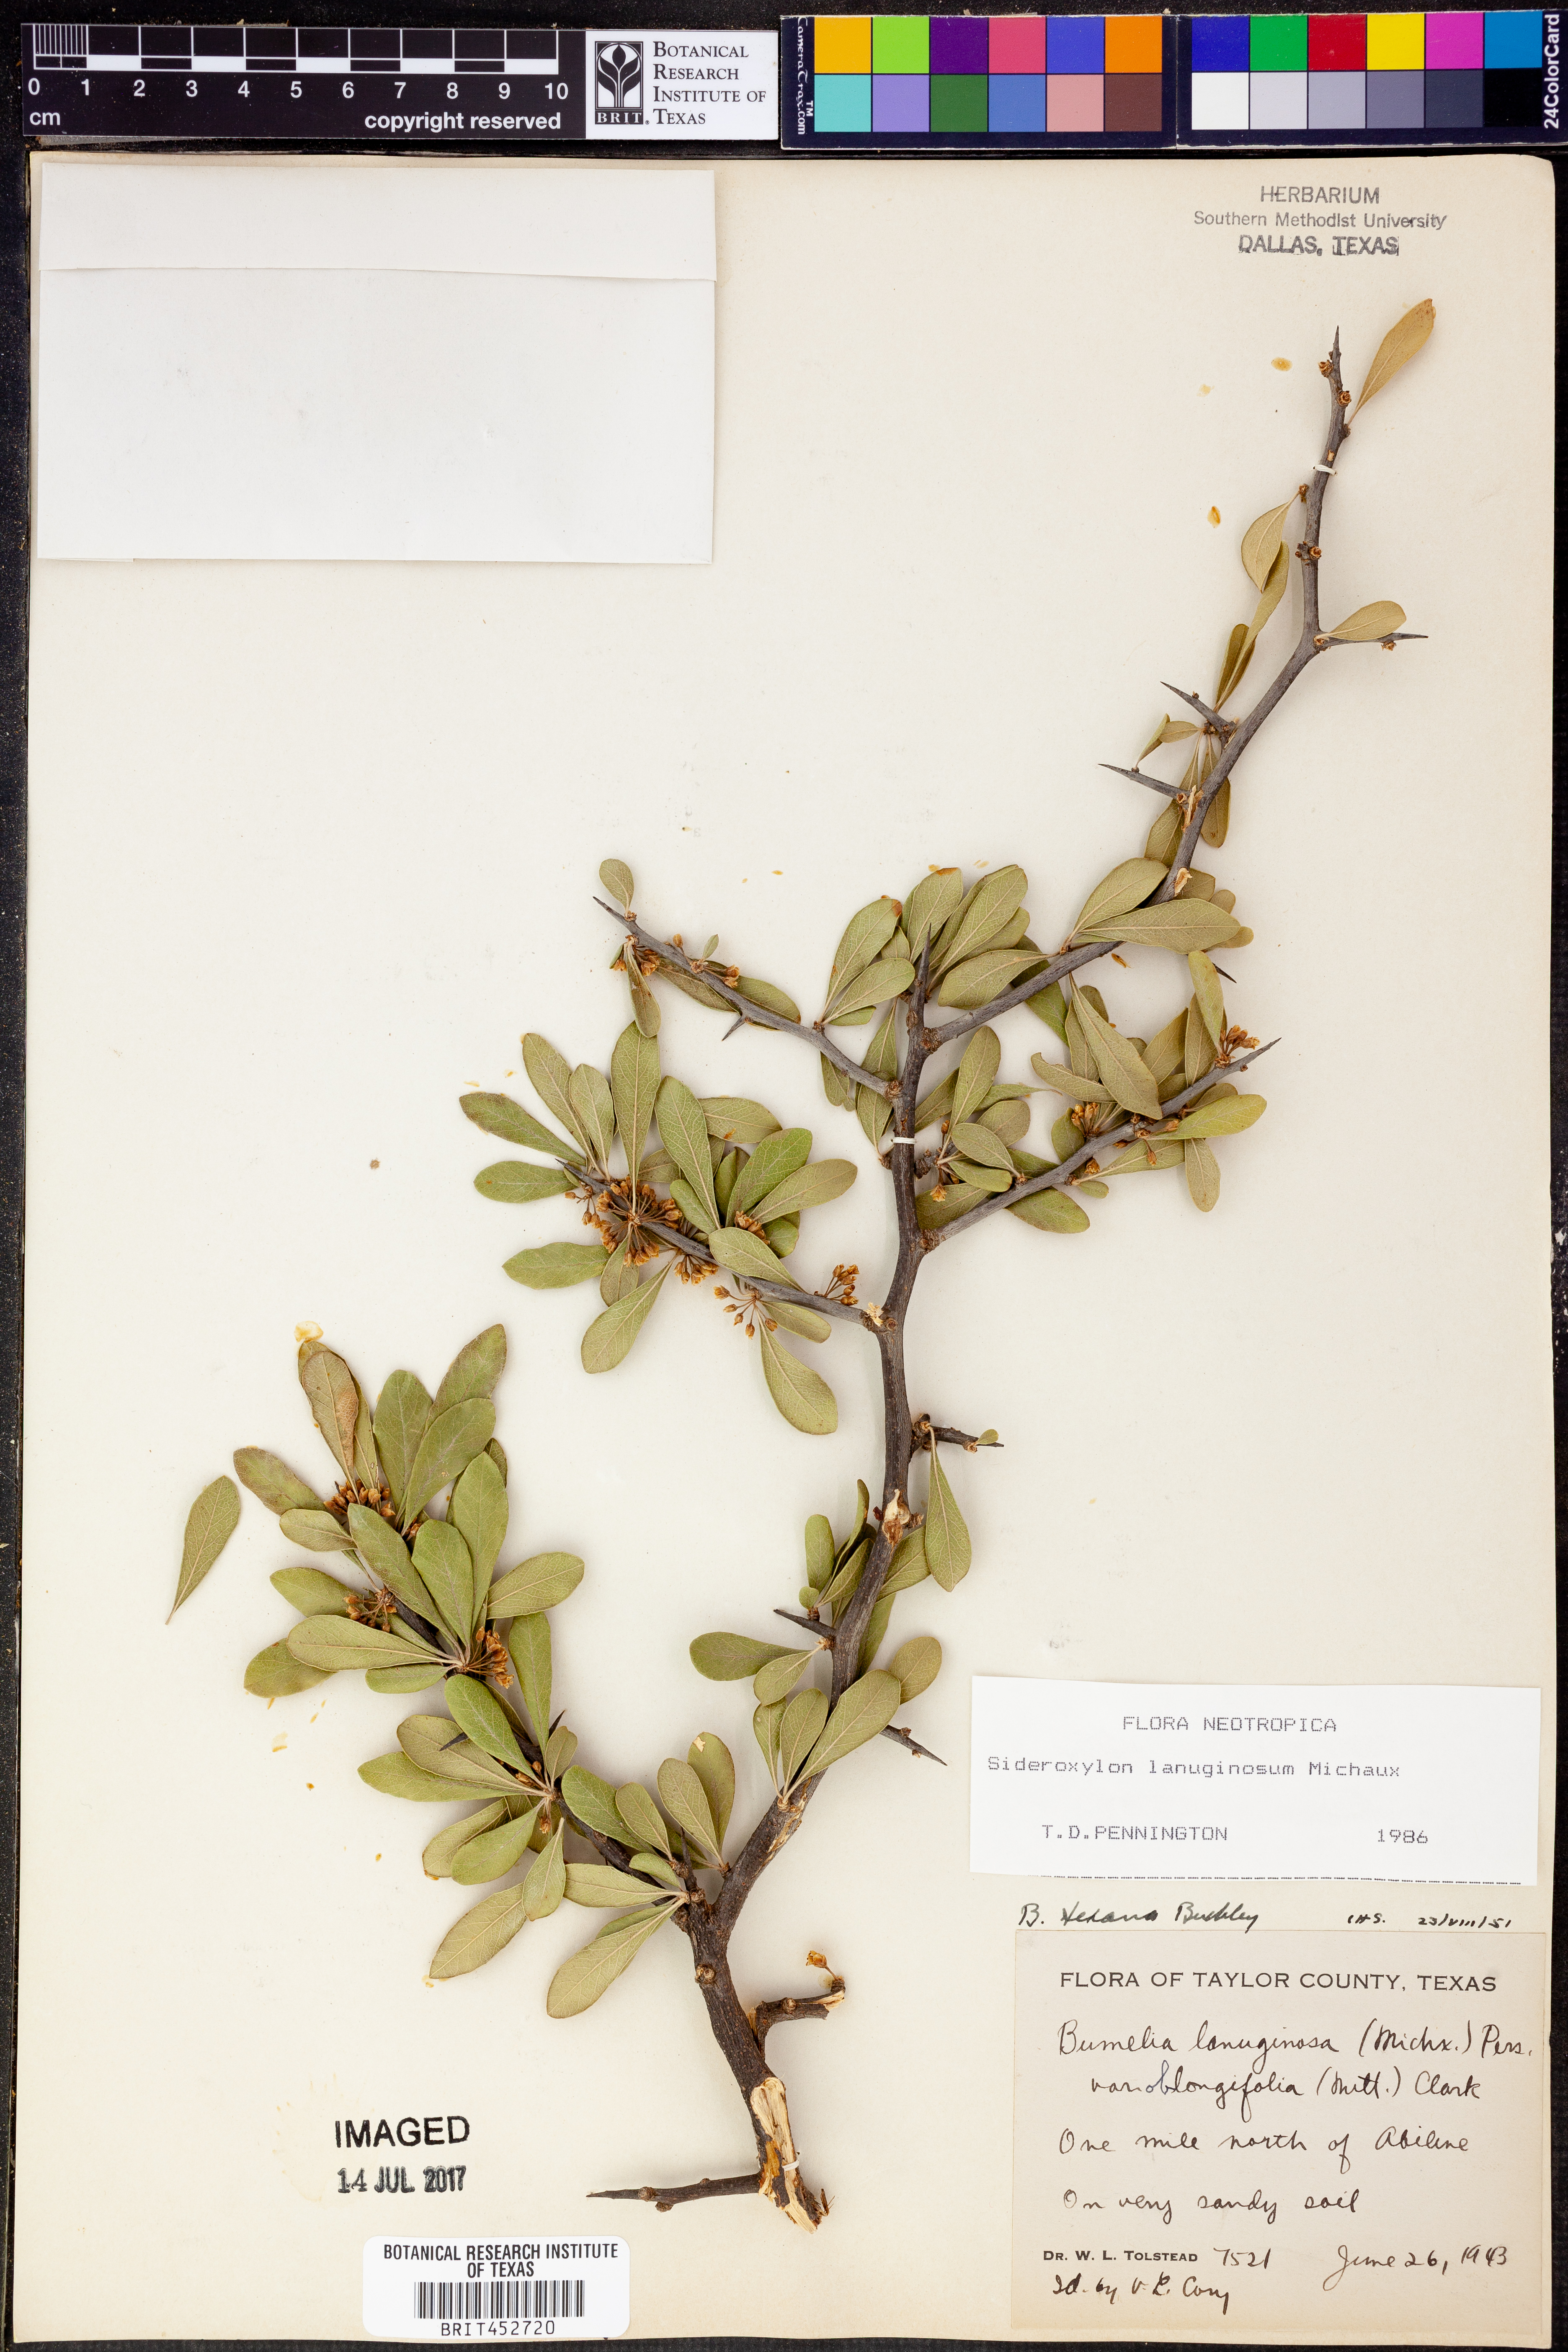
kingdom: Plantae
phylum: Tracheophyta
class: Magnoliopsida
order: Ericales
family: Sapotaceae
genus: Sideroxylon
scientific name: Sideroxylon lanuginosum
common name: Chittamwood
